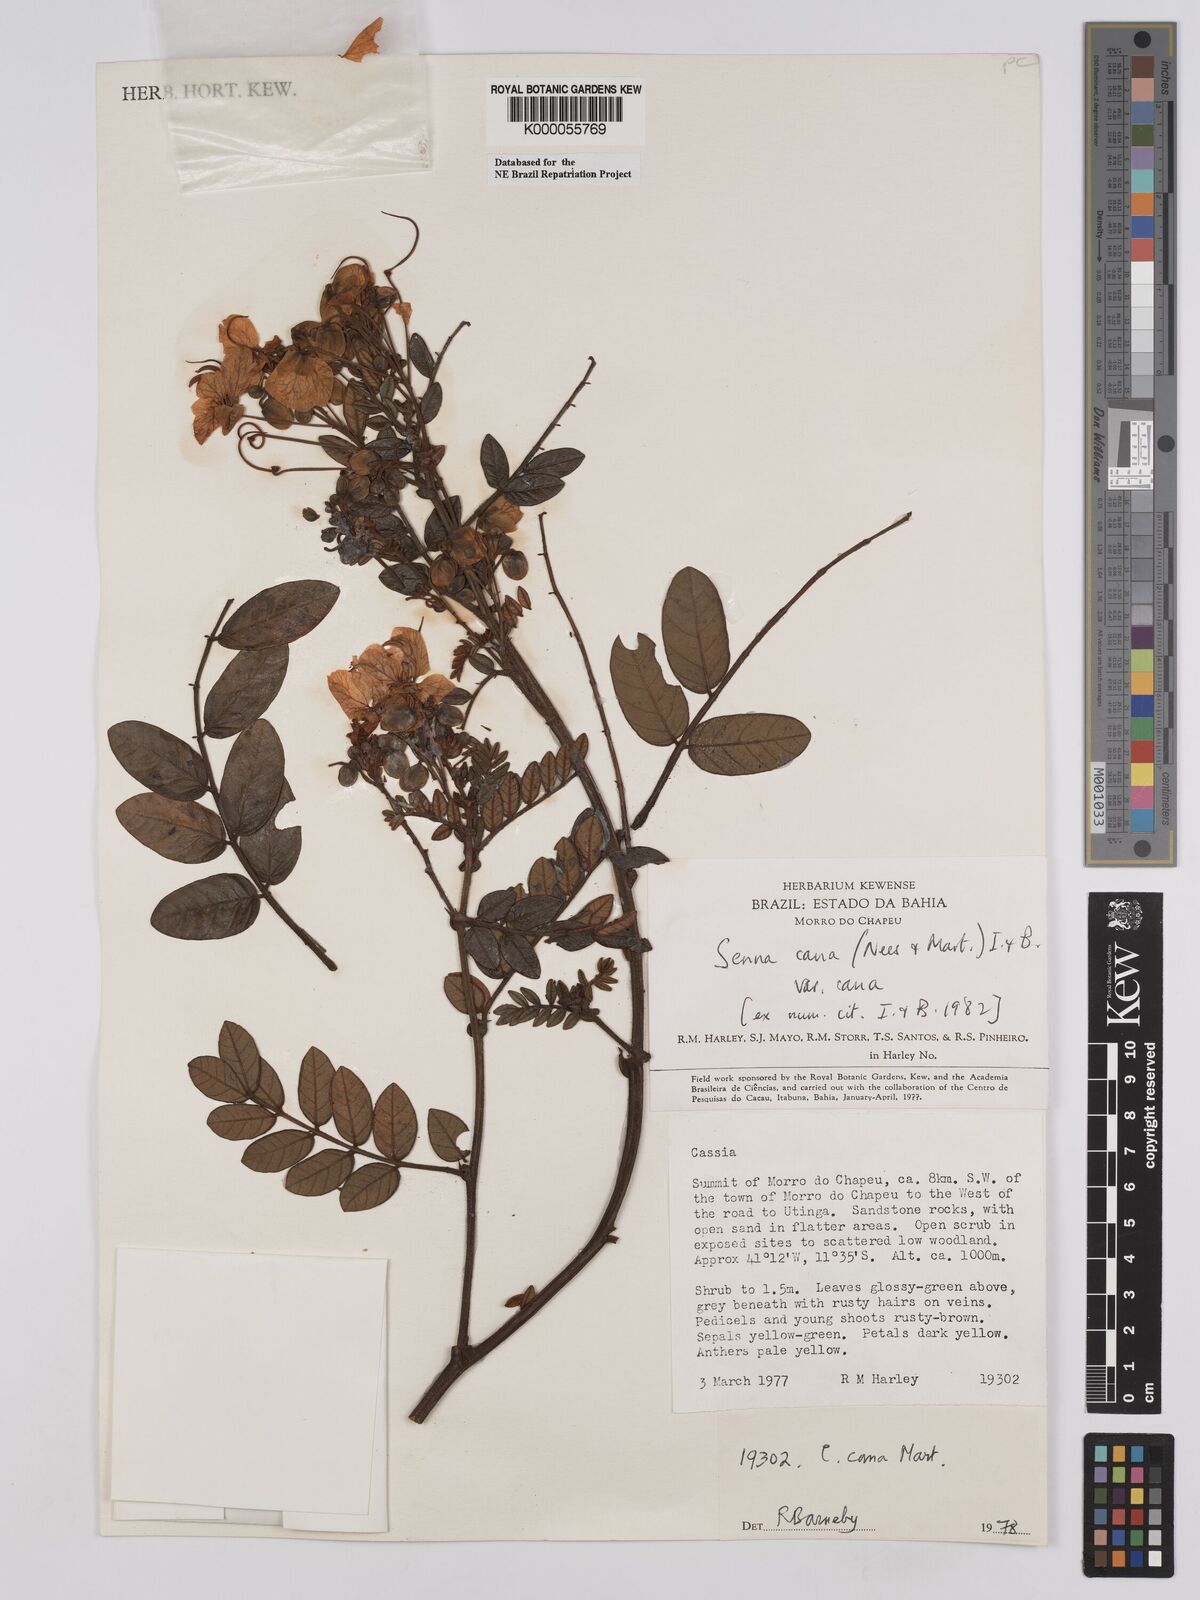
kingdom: Plantae
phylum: Tracheophyta
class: Magnoliopsida
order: Fabales
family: Fabaceae
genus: Senna
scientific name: Senna cana
